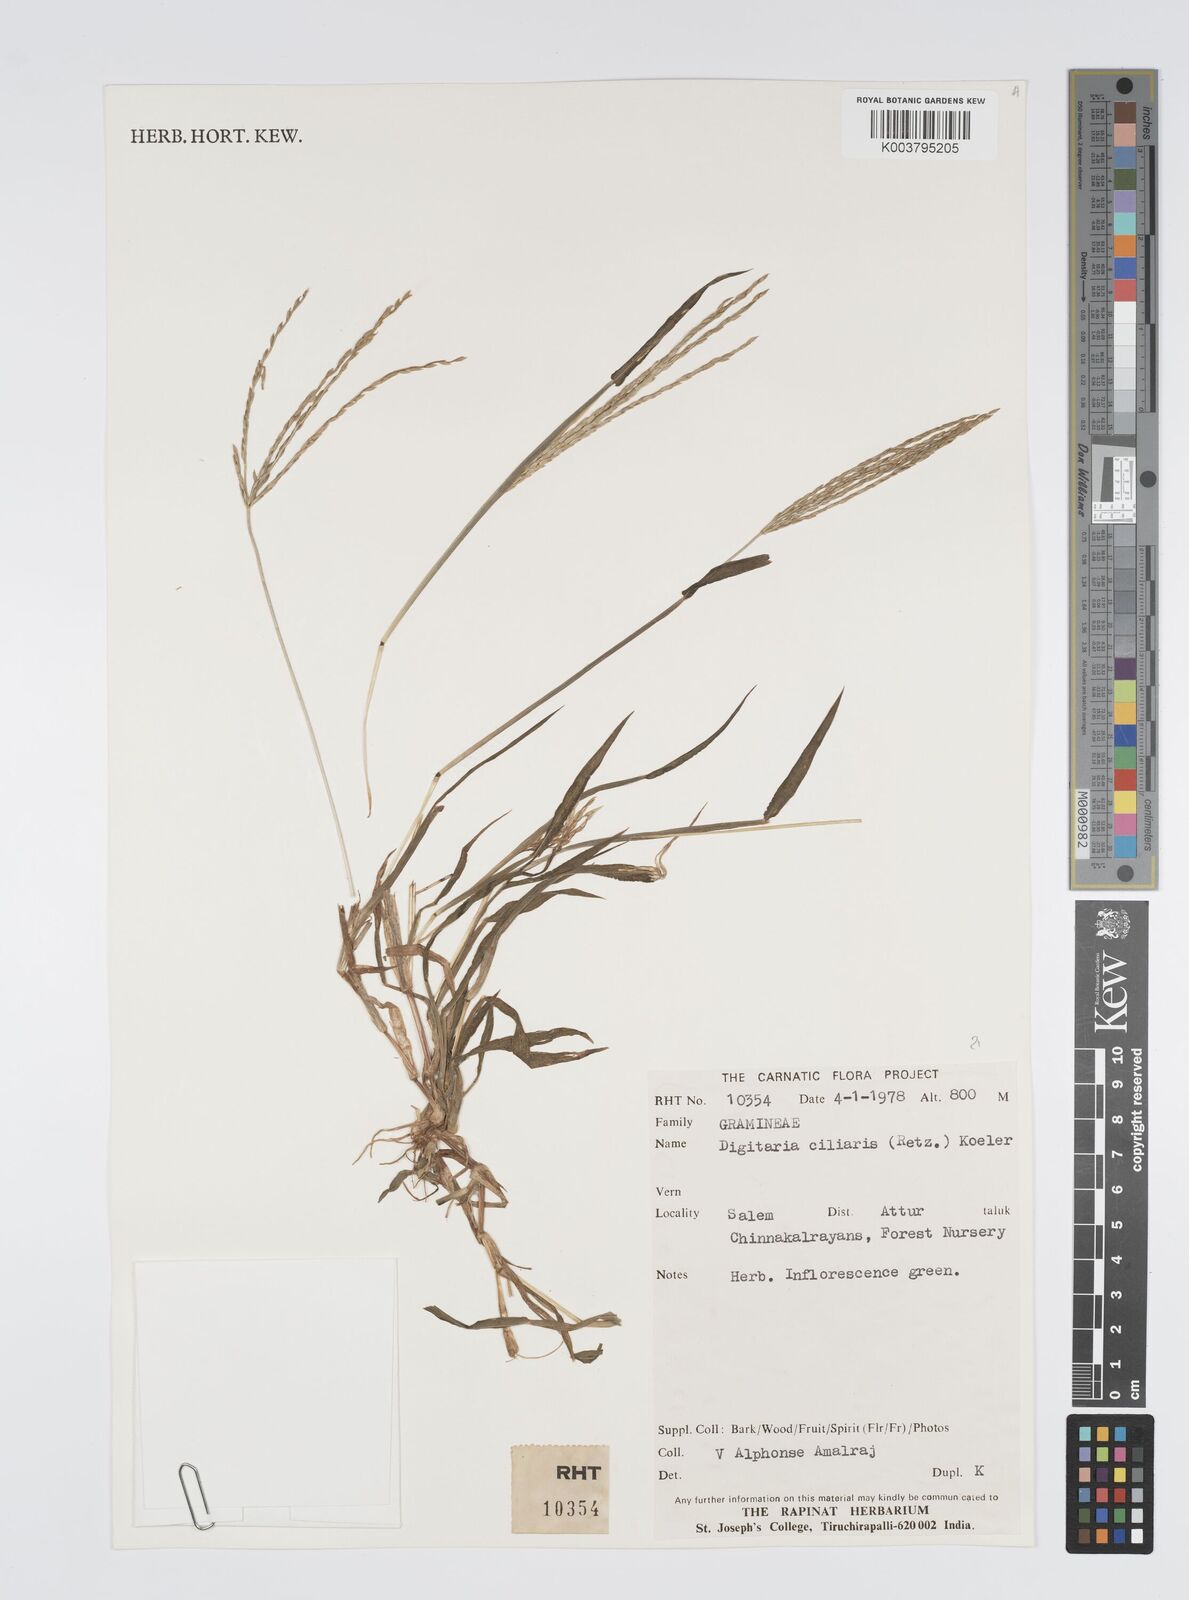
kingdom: Plantae
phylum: Tracheophyta
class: Liliopsida
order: Poales
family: Poaceae
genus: Digitaria
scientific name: Digitaria ciliaris
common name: Tropical finger-grass
